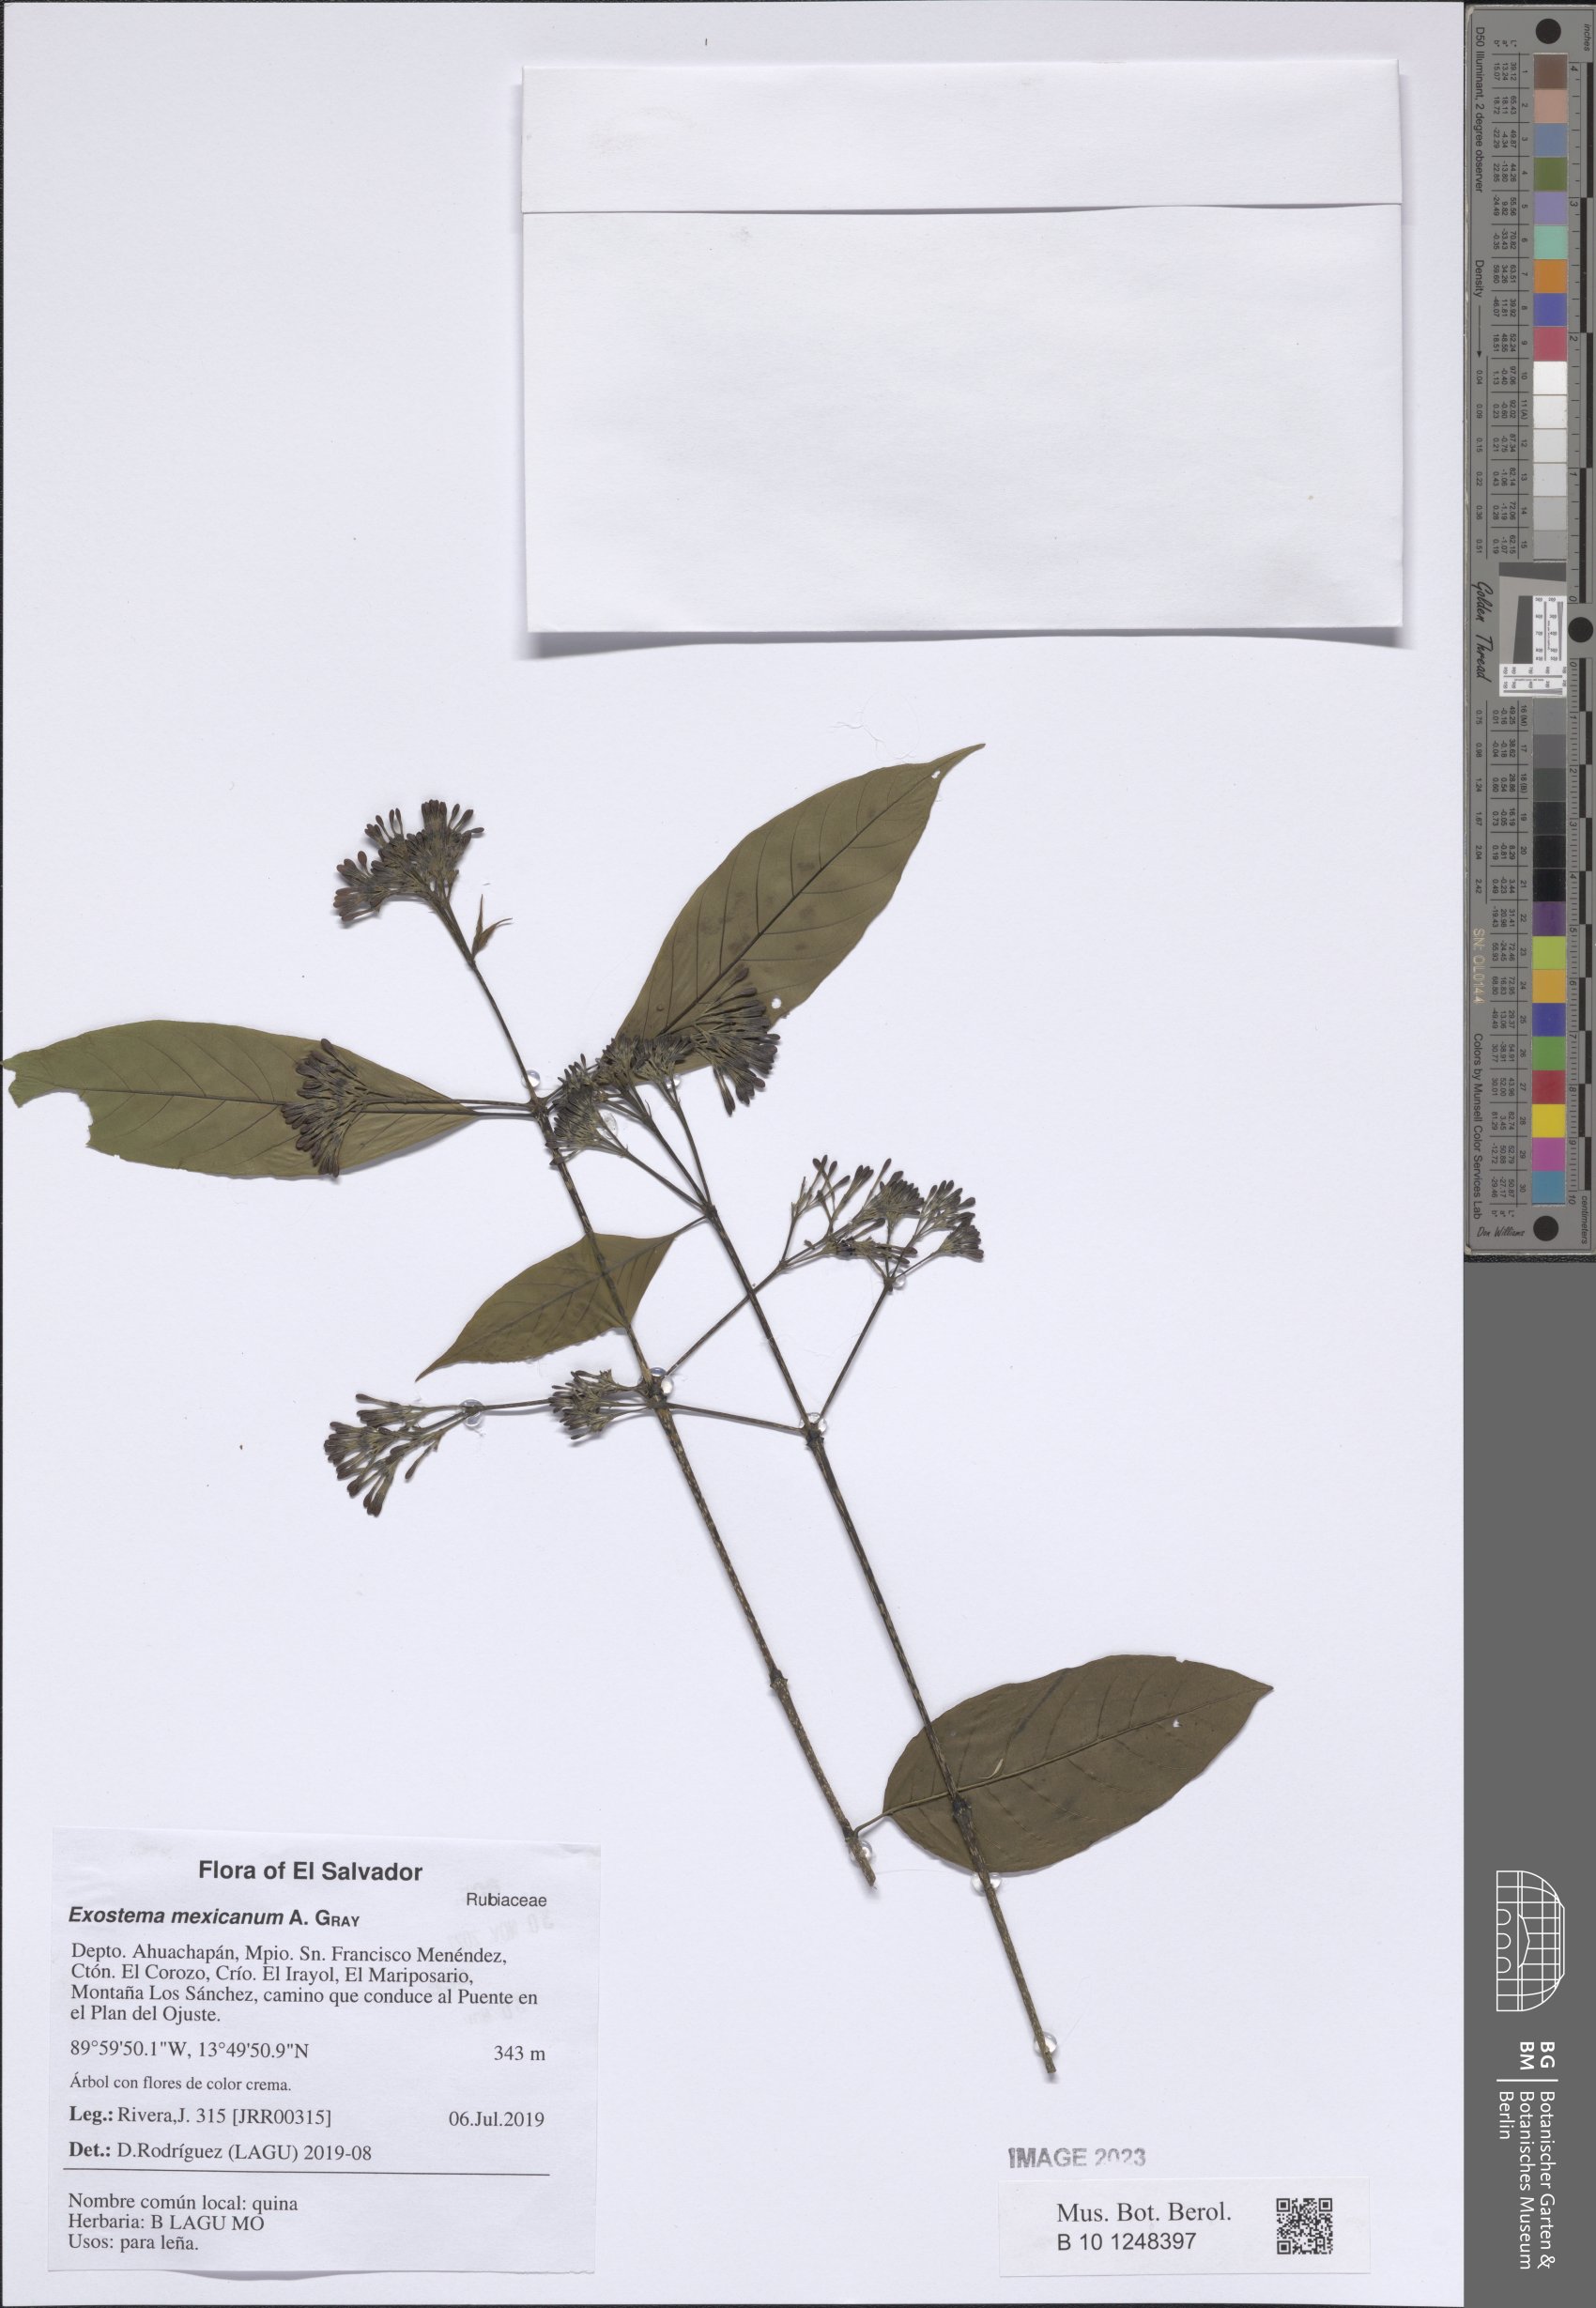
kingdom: Plantae
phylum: Tracheophyta
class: Magnoliopsida
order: Gentianales
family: Rubiaceae
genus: Solenandra
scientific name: Solenandra mexicana
